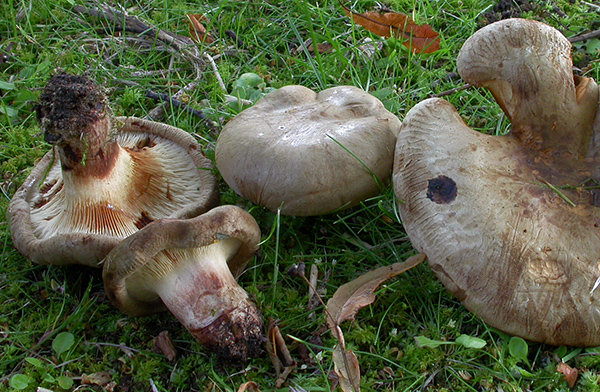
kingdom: Fungi
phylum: Basidiomycota
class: Agaricomycetes
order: Boletales
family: Paxillaceae
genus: Paxillus
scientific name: Paxillus obscurisporus
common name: mahognisporet netbladhat
